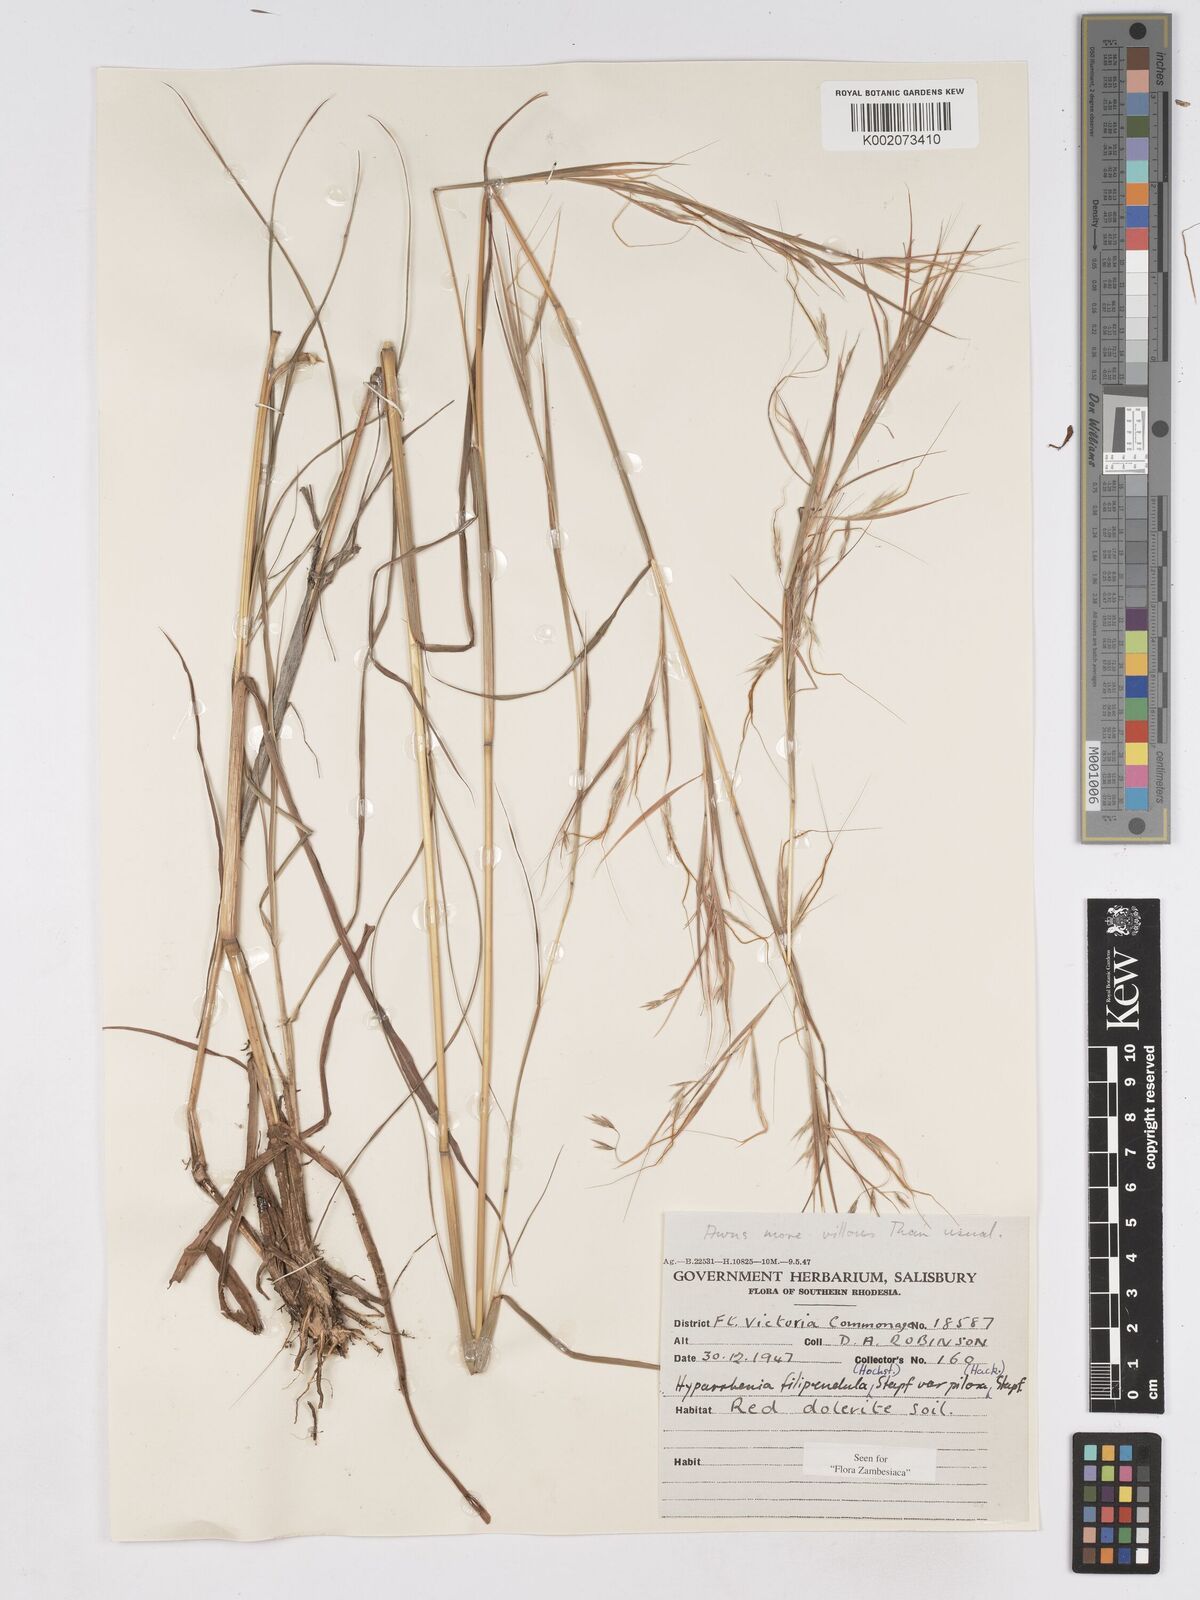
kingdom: Plantae
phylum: Tracheophyta
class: Liliopsida
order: Poales
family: Poaceae
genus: Hyparrhenia
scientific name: Hyparrhenia filipendula
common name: Tambookie grass
